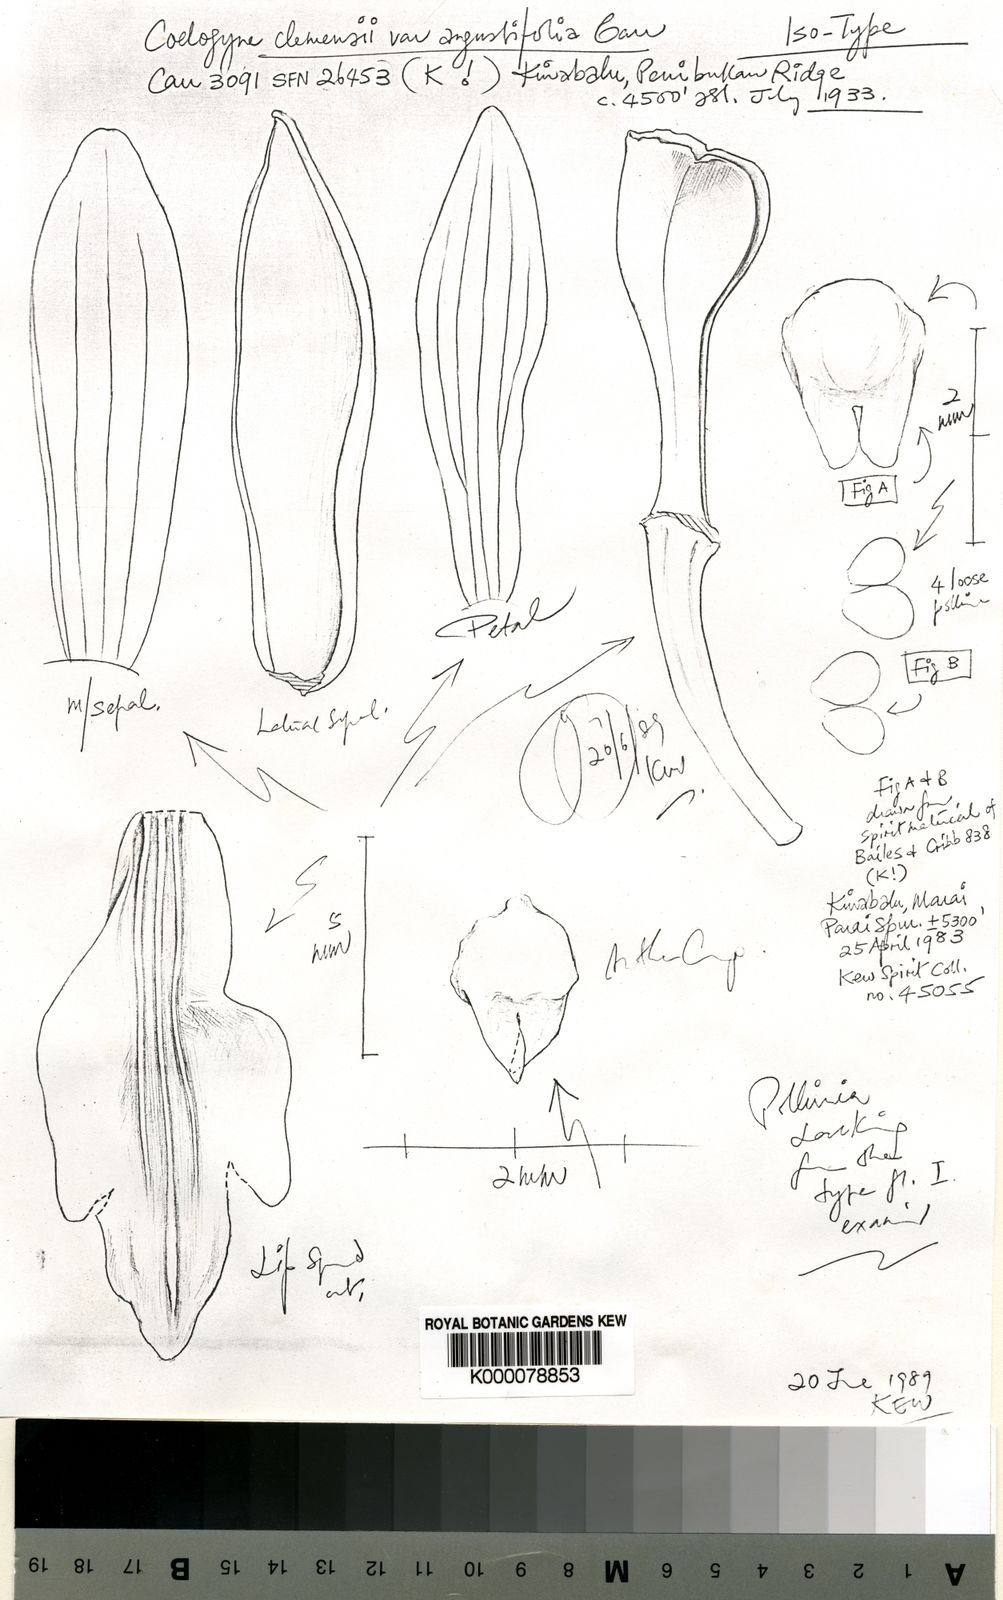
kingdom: Plantae
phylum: Tracheophyta
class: Liliopsida
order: Asparagales
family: Orchidaceae
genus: Coelogyne
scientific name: Coelogyne clemensii
